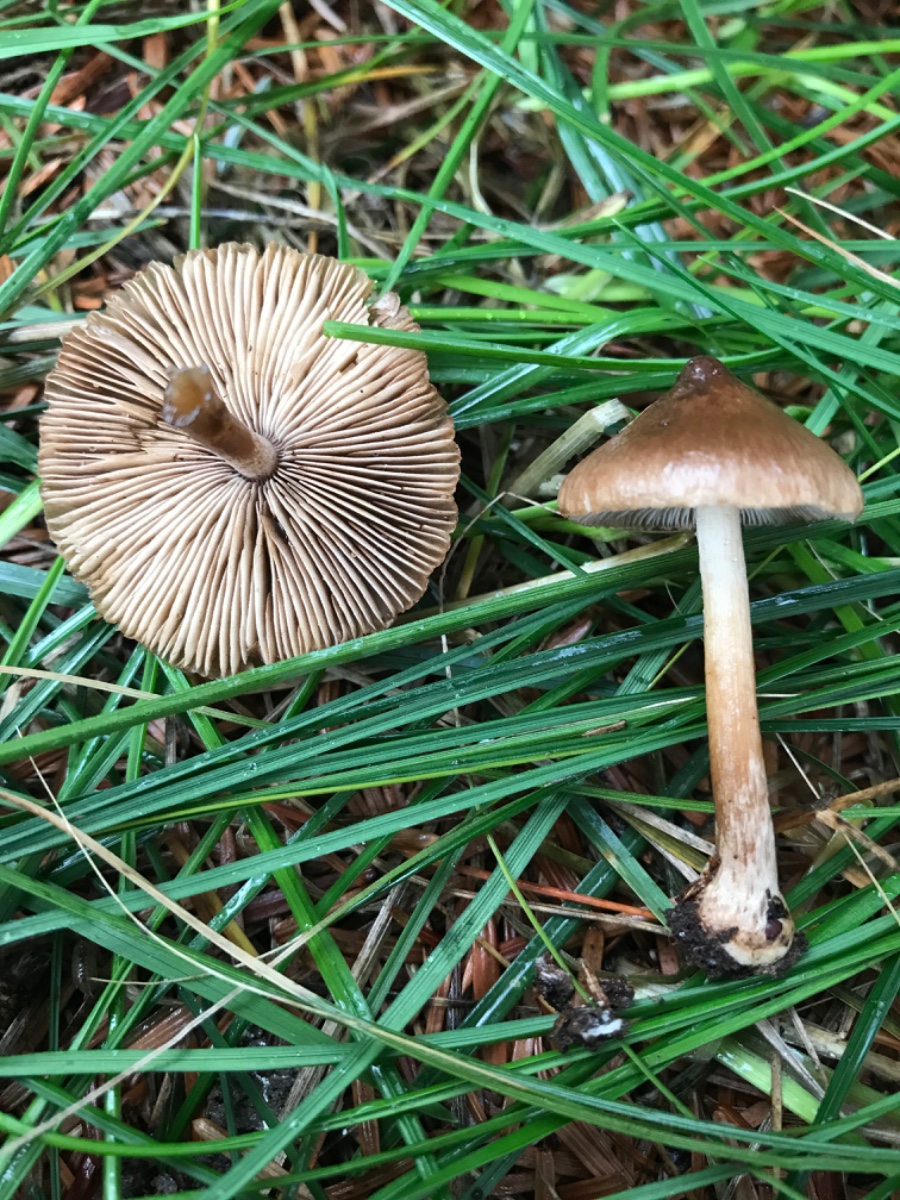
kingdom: Fungi
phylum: Basidiomycota
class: Agaricomycetes
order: Agaricales
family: Inocybaceae
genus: Inocybe
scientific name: Inocybe napipes
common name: roeknoldet trævlhat
